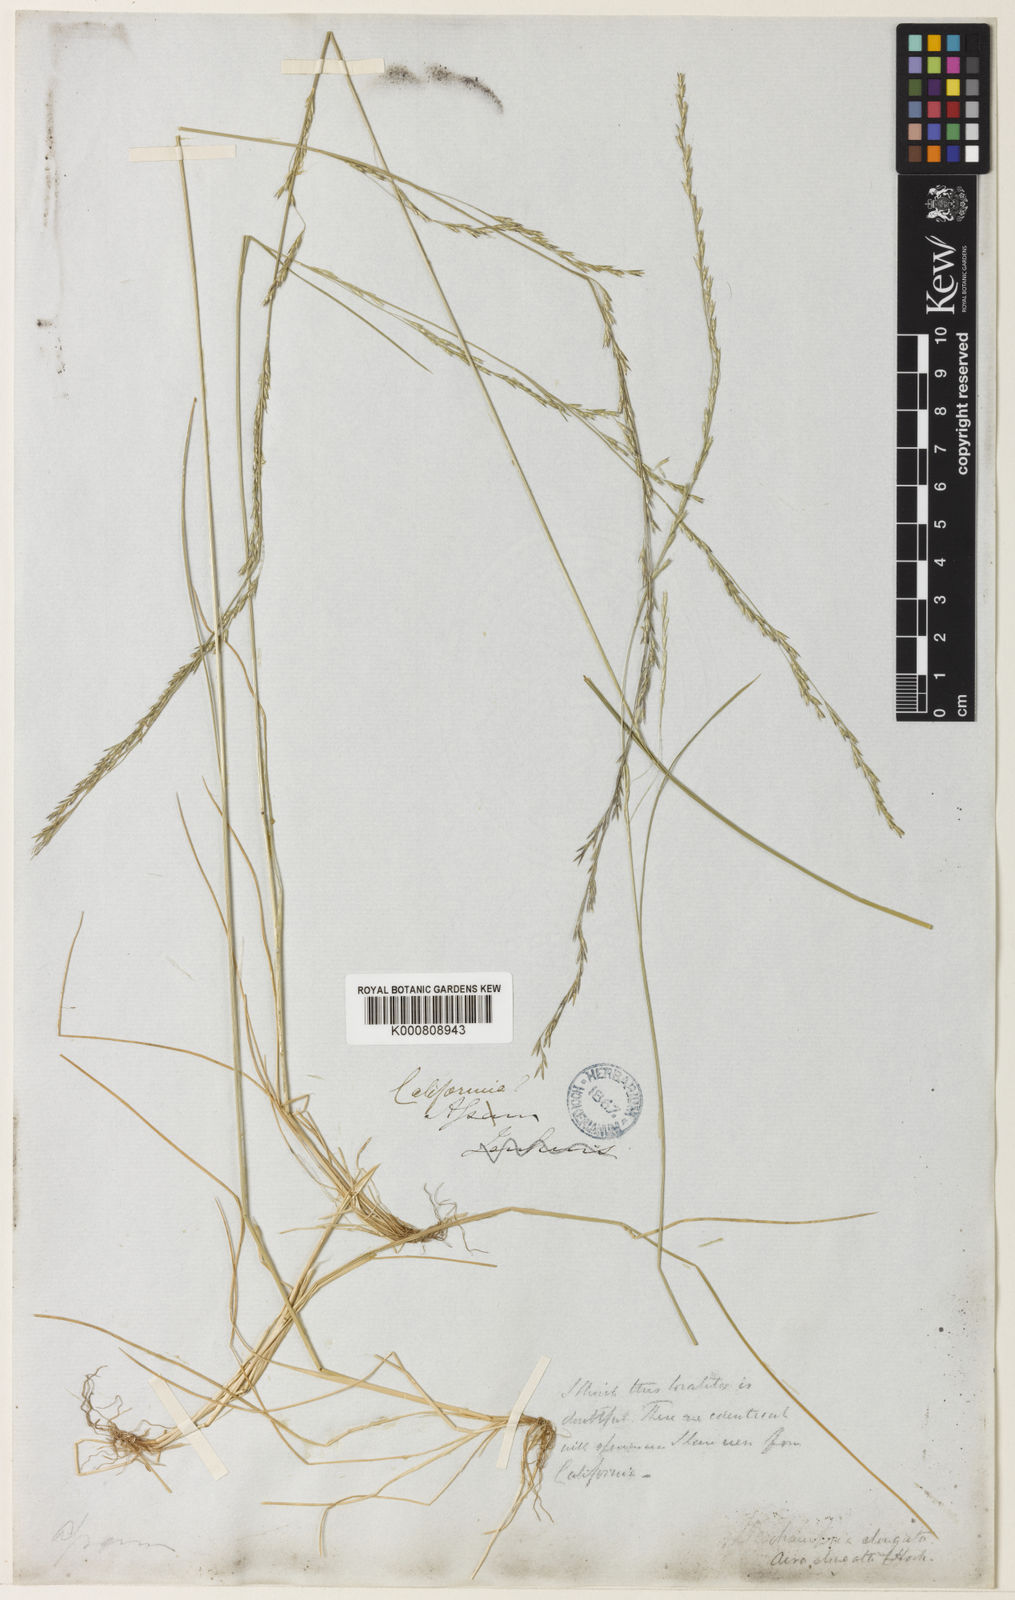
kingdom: Plantae
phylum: Tracheophyta
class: Liliopsida
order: Poales
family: Poaceae
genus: Deschampsia
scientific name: Deschampsia elongata
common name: Slender hairgrass
